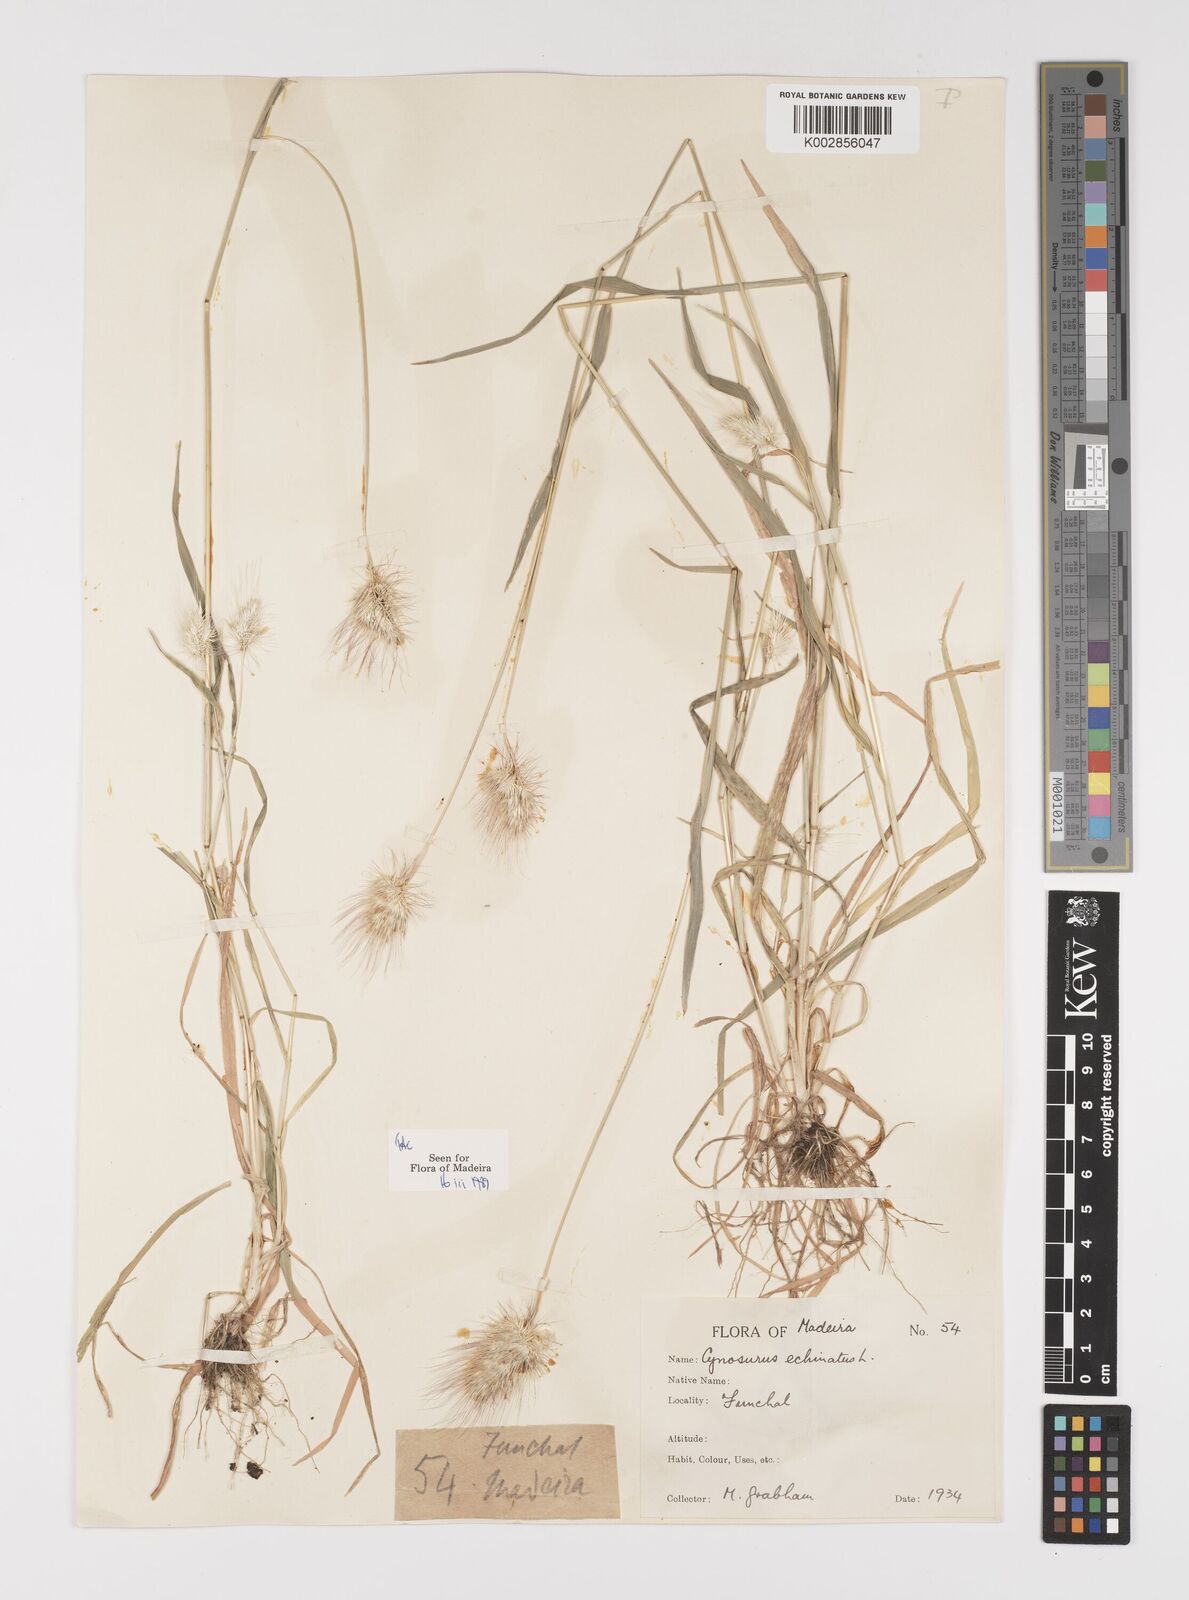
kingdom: Plantae
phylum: Tracheophyta
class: Liliopsida
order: Poales
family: Poaceae
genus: Cynosurus
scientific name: Cynosurus echinatus
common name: Rough dog's-tail
